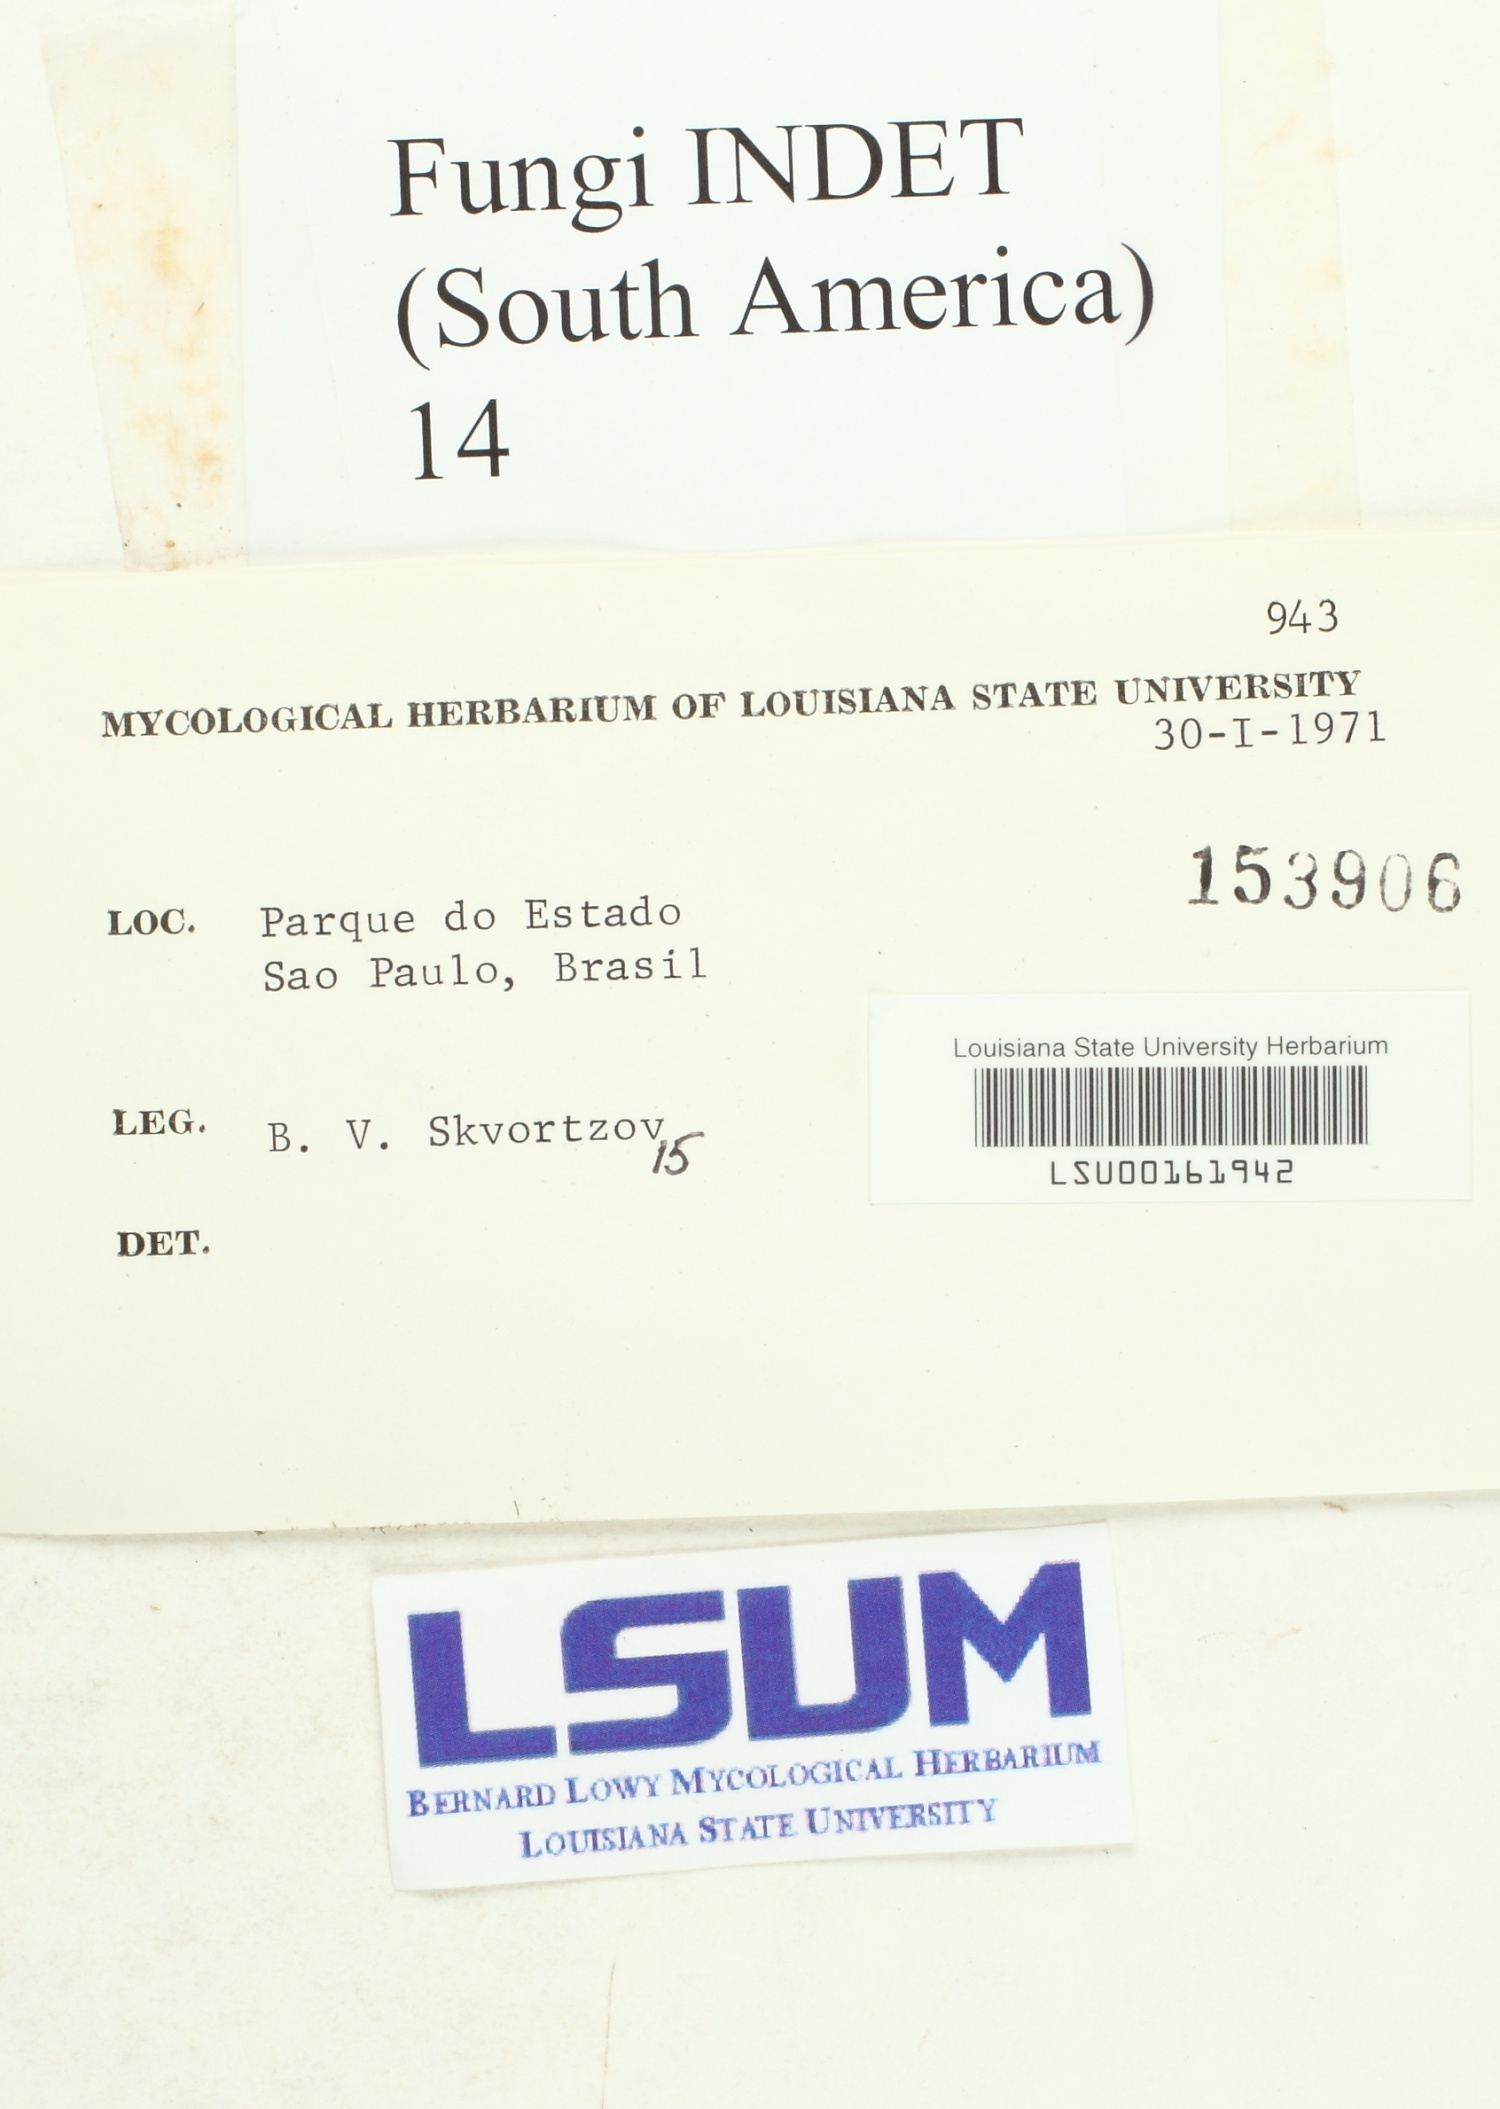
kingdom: Fungi
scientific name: Fungi
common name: Fungi
